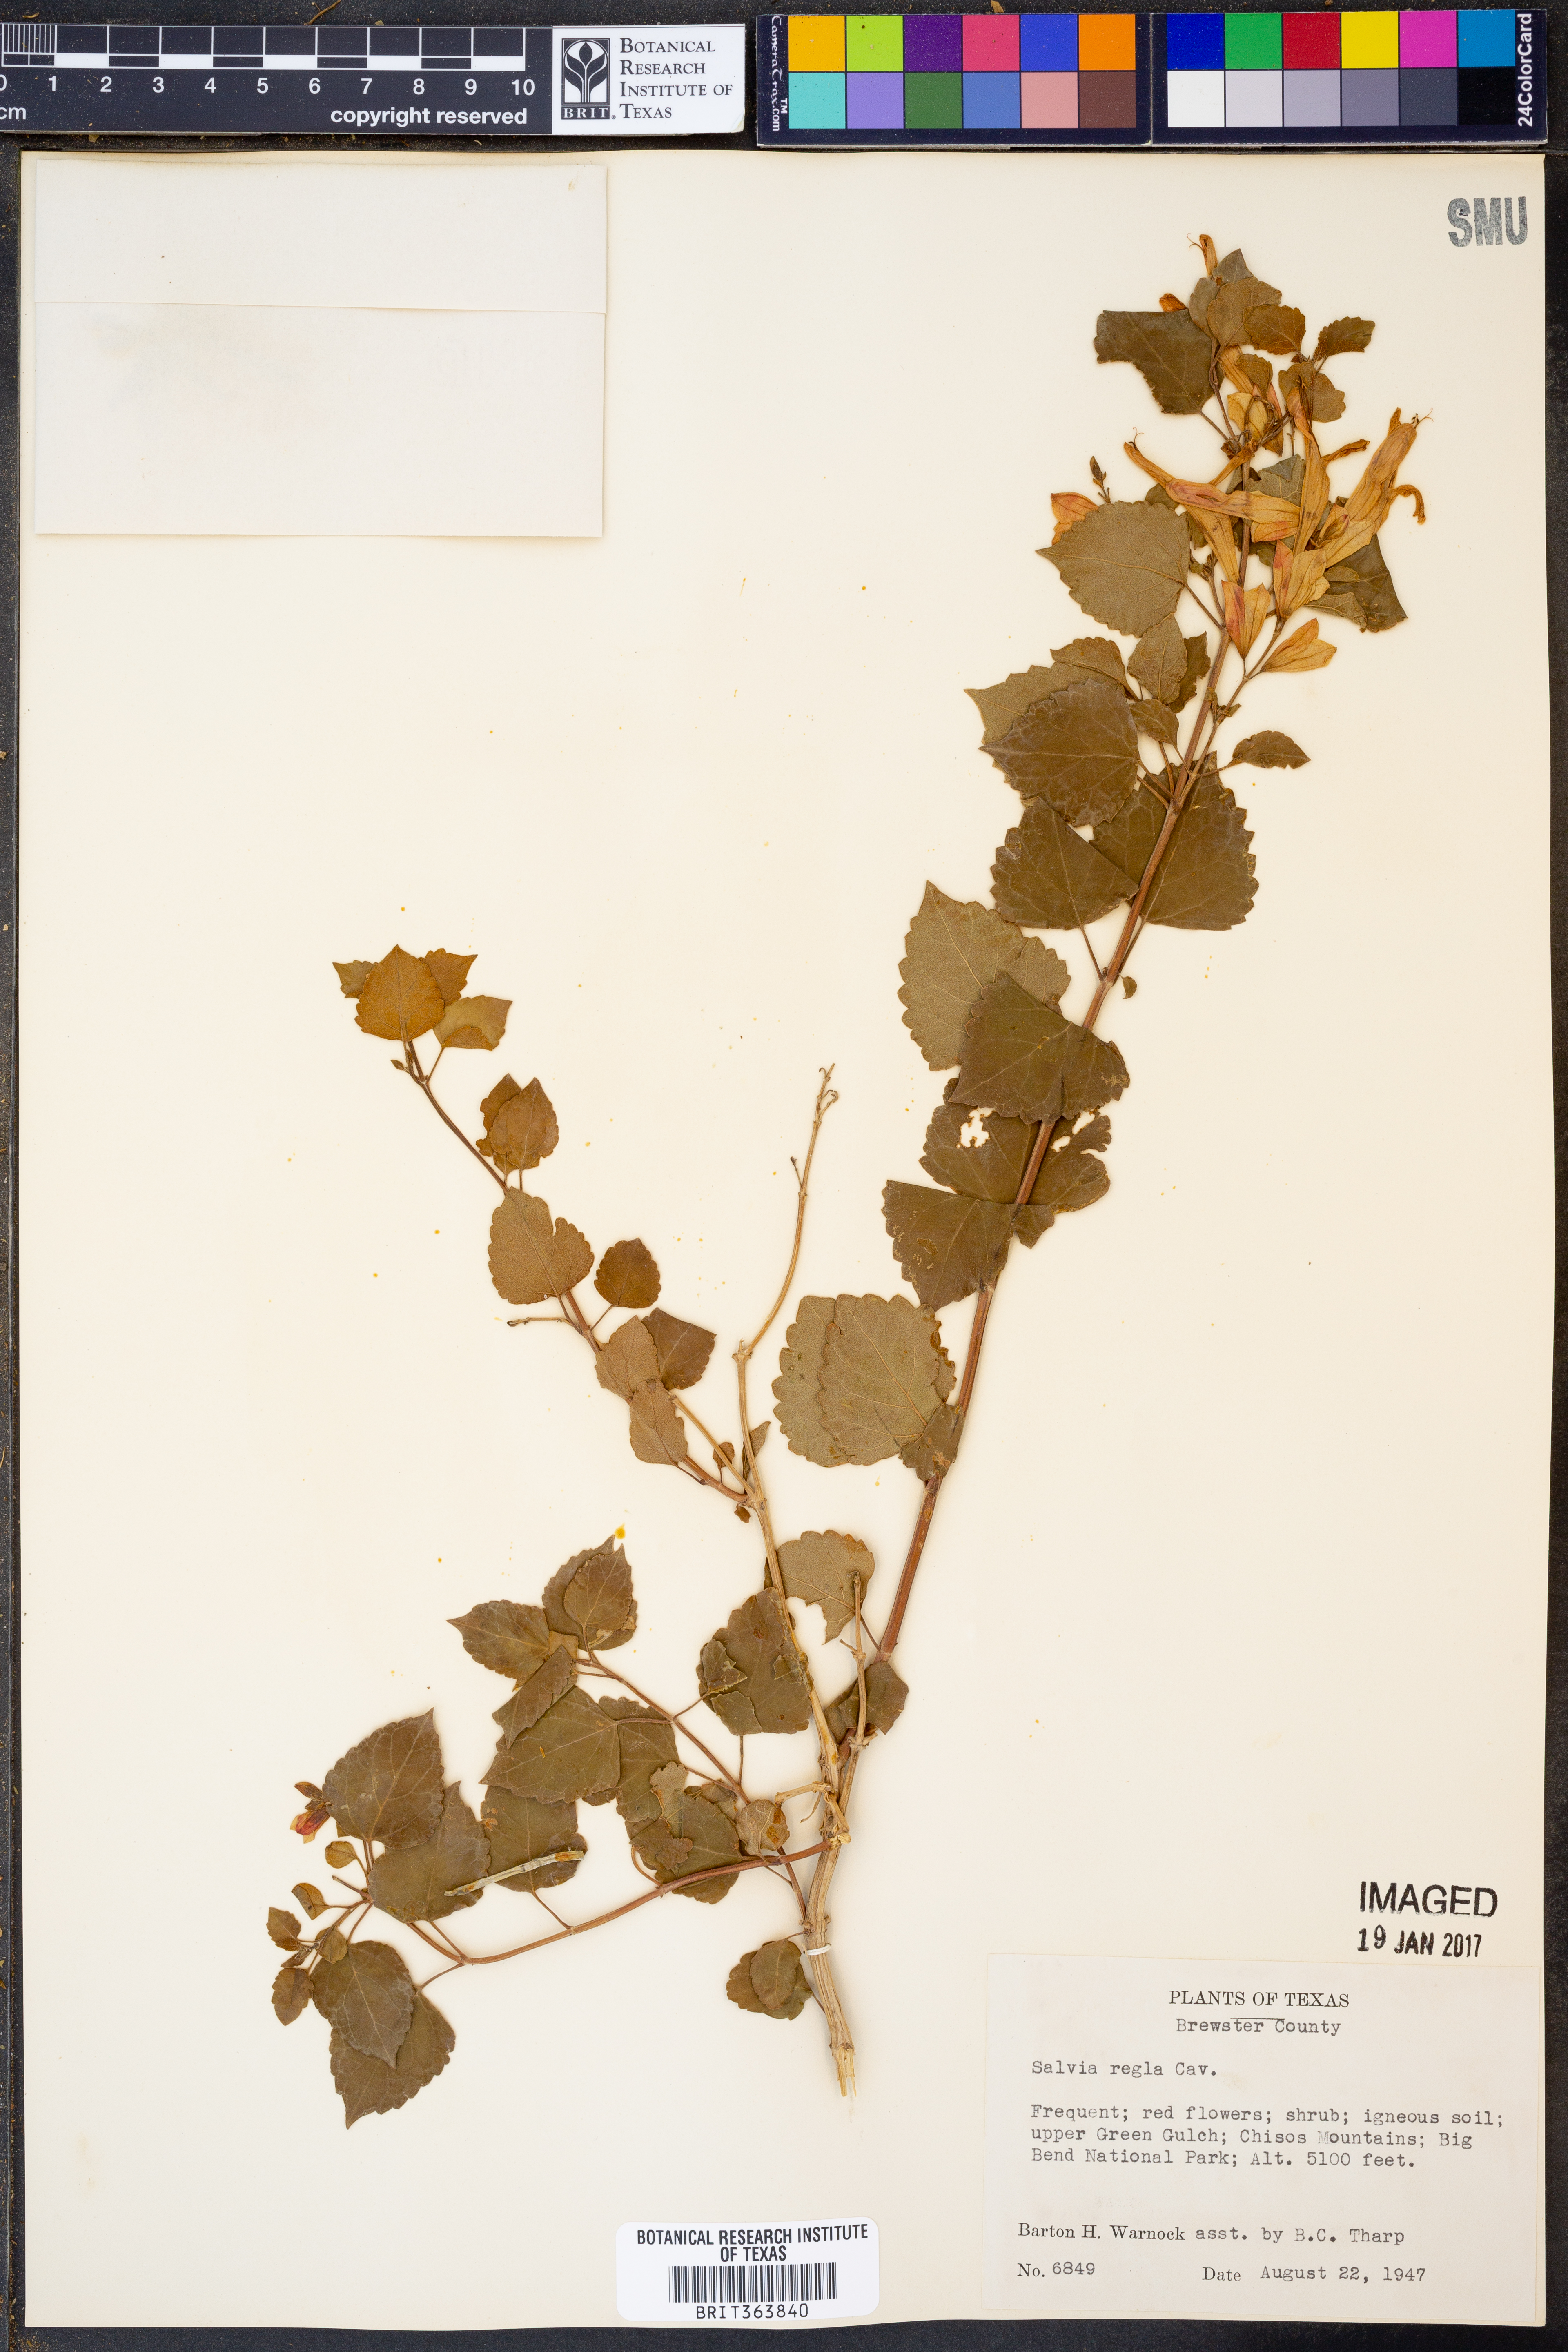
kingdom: Plantae
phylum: Tracheophyta
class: Magnoliopsida
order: Lamiales
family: Lamiaceae
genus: Salvia
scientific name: Salvia regla
